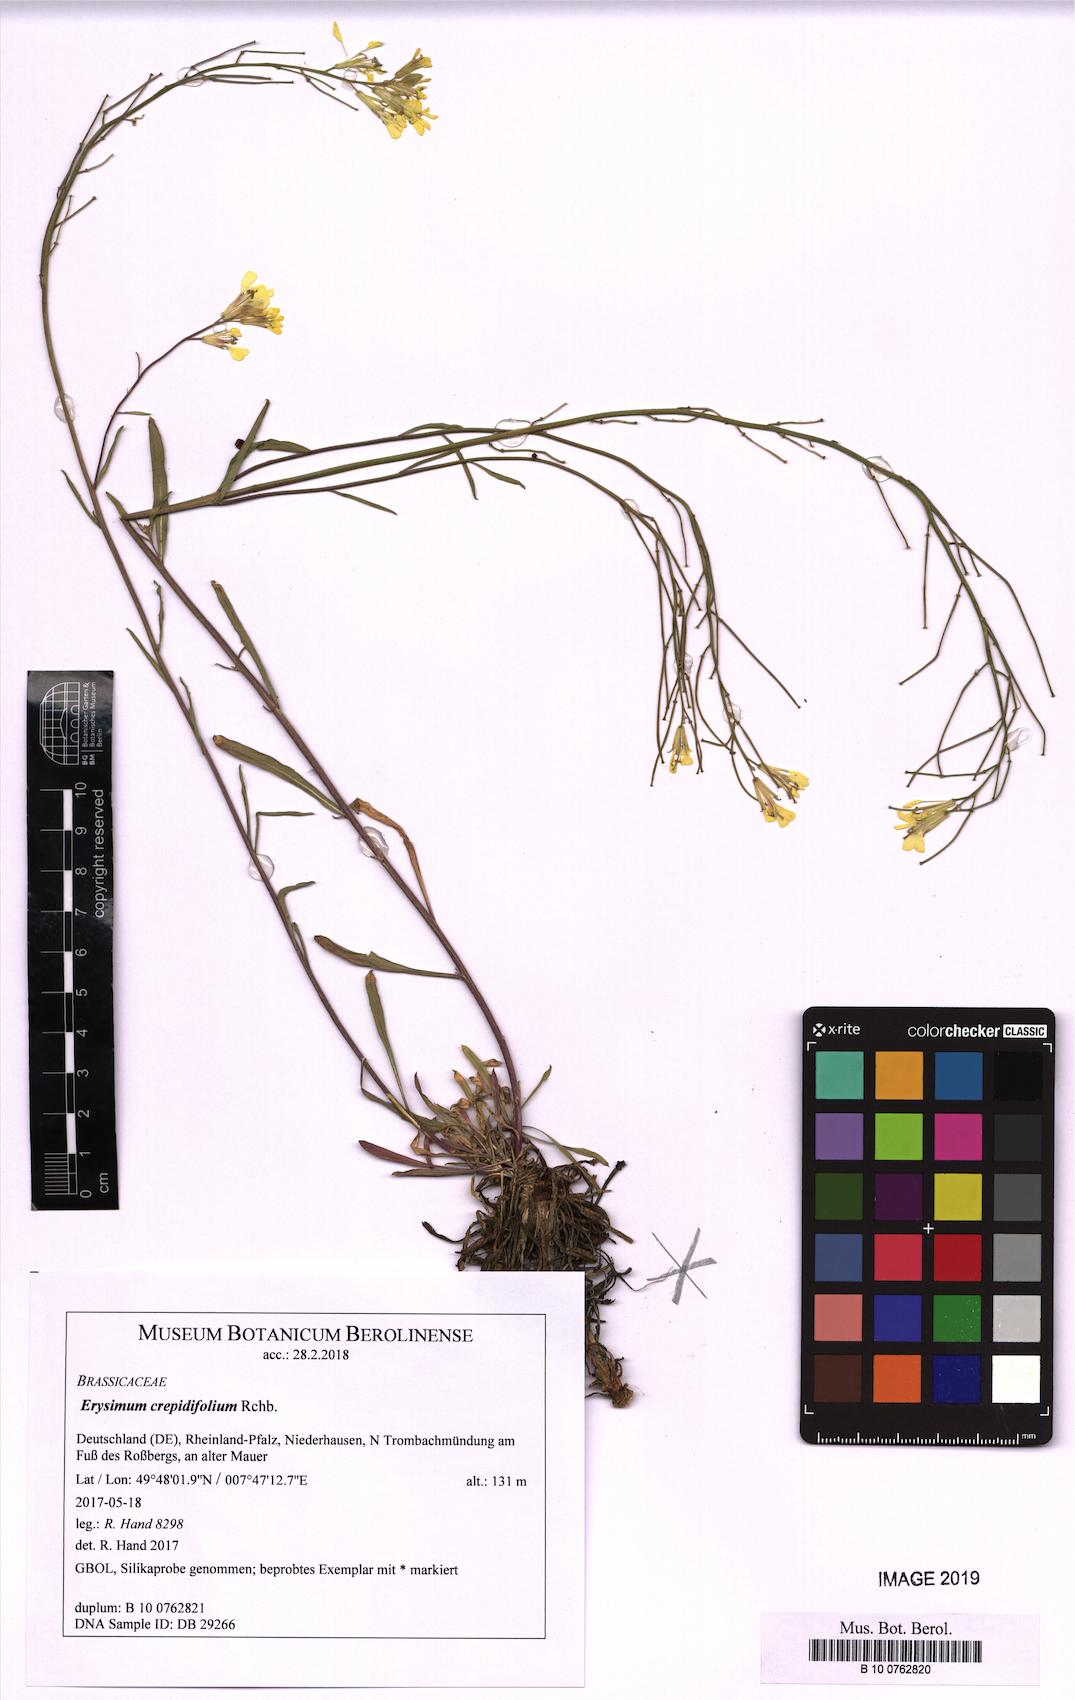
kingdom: Plantae
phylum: Tracheophyta
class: Magnoliopsida
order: Brassicales
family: Brassicaceae
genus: Erysimum
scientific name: Erysimum crepidifolium
